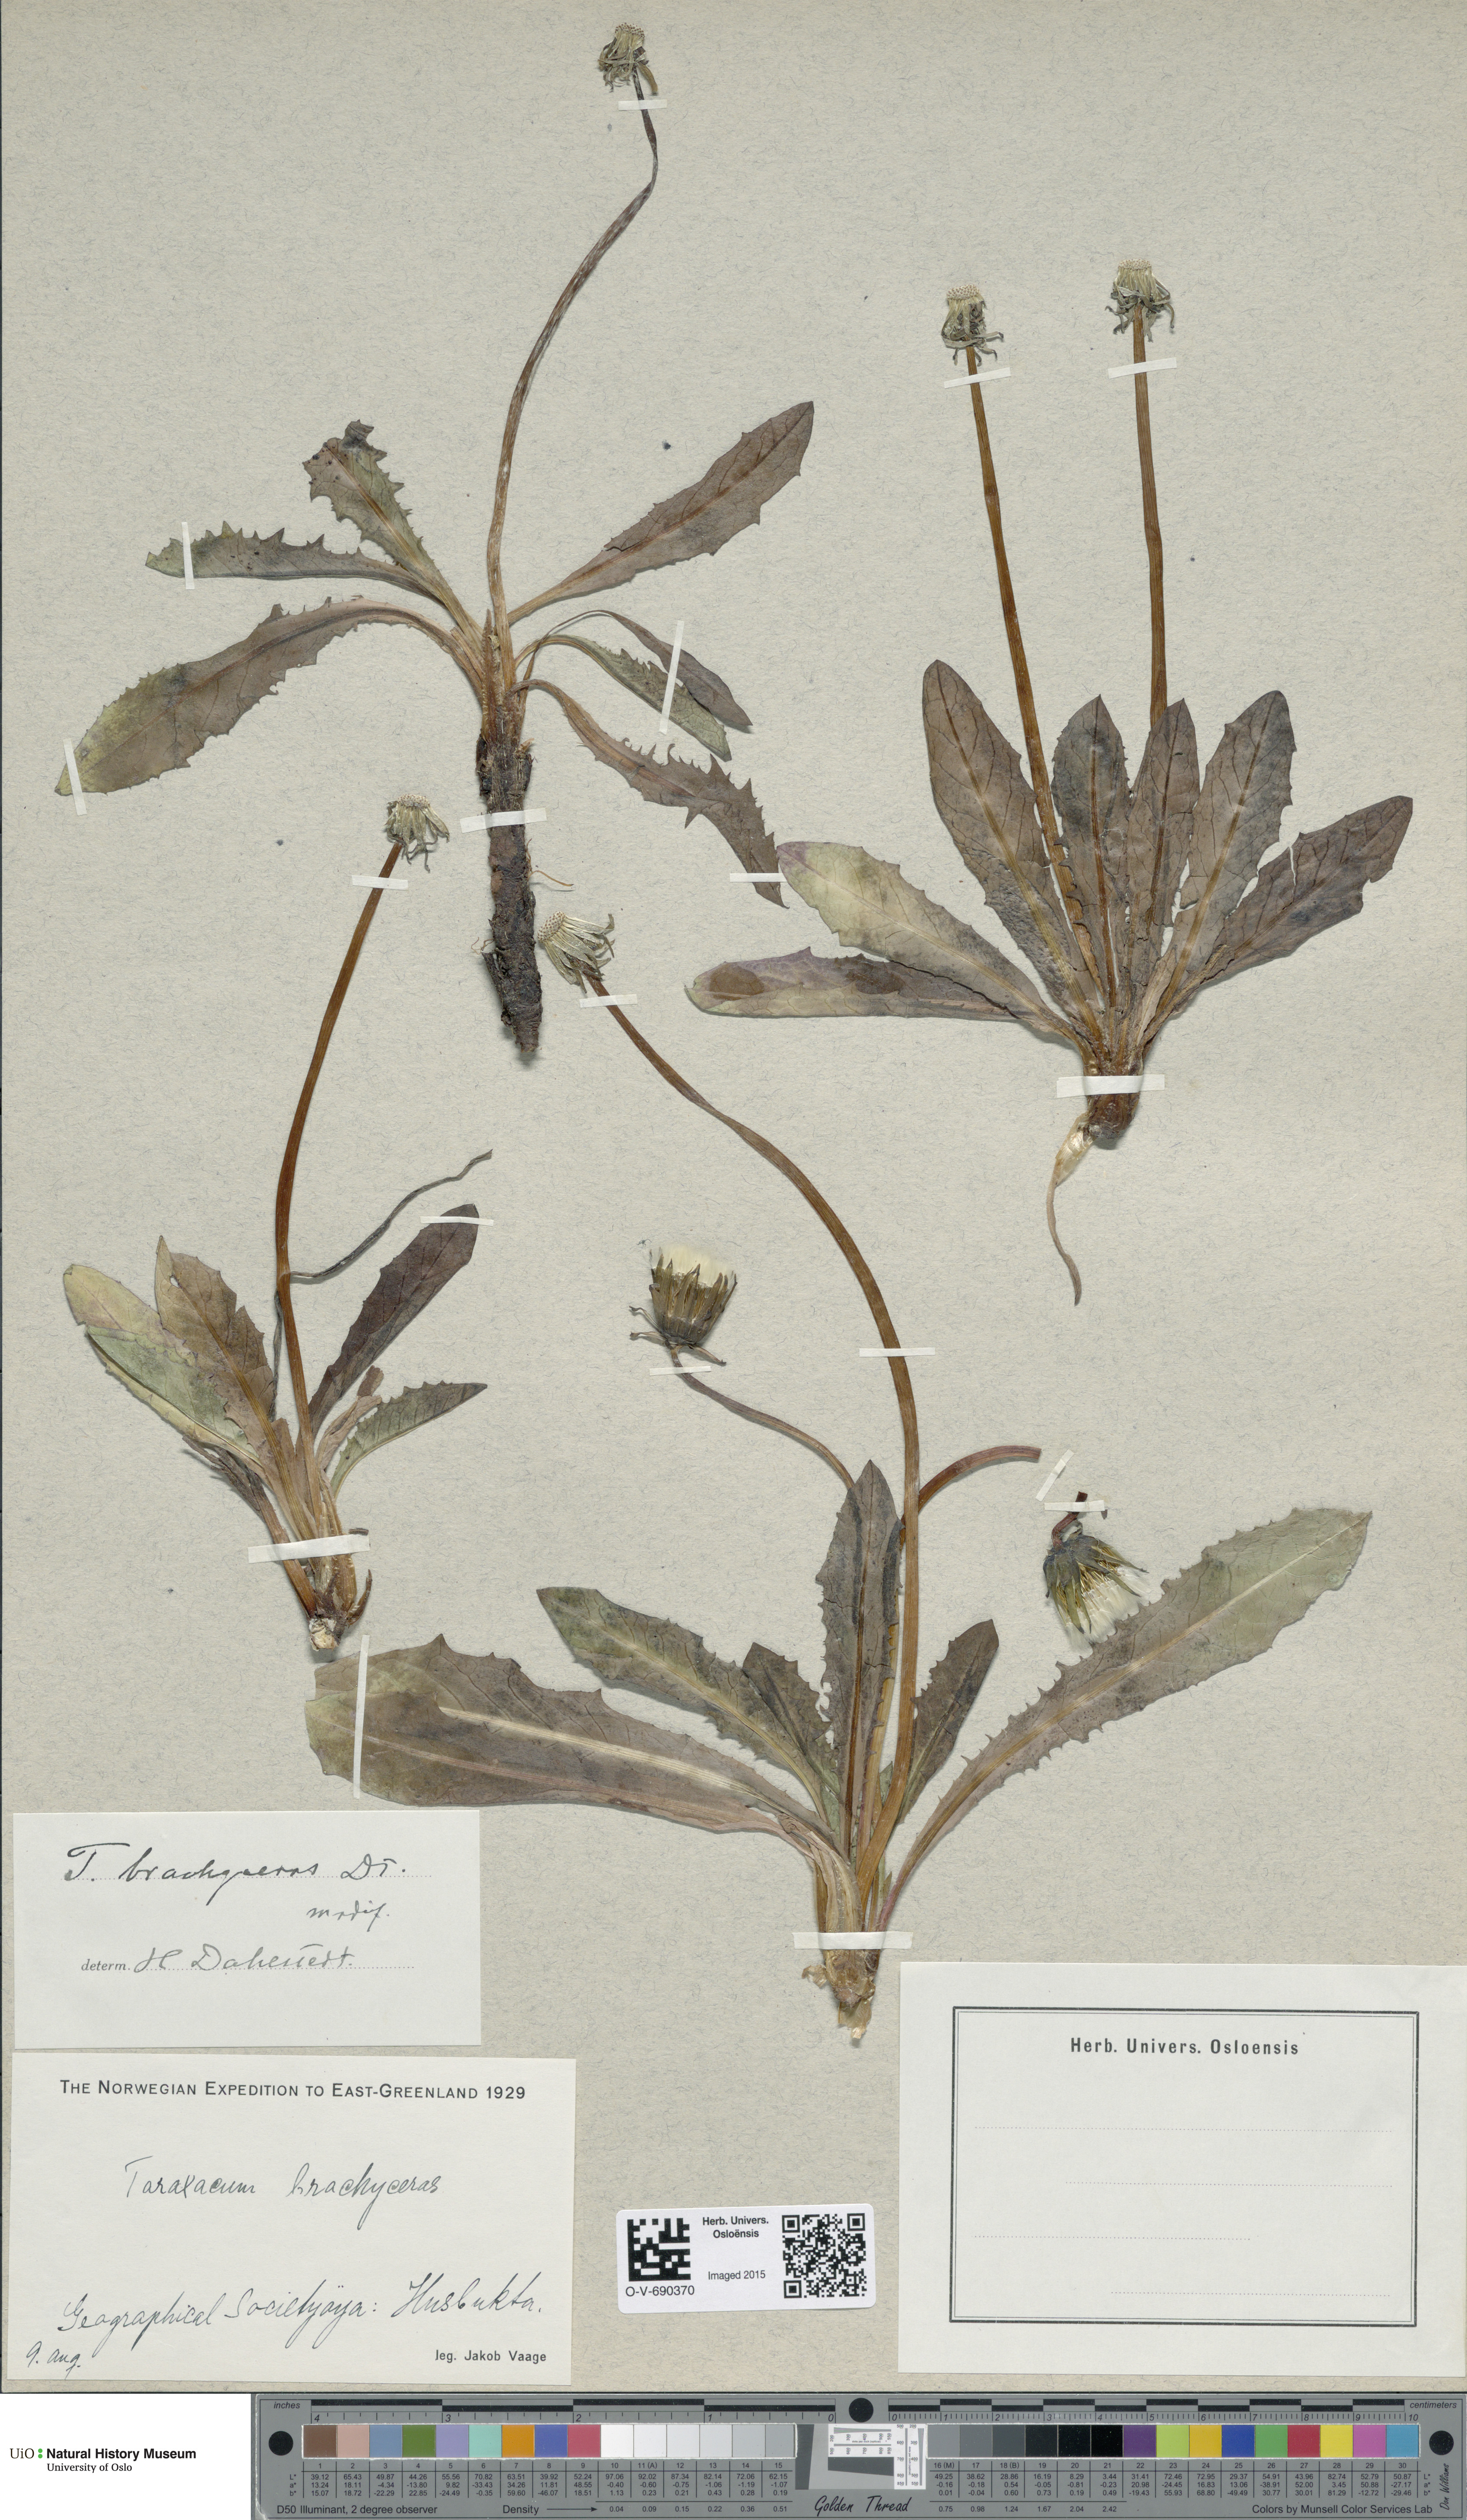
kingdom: Plantae
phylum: Tracheophyta
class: Magnoliopsida
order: Asterales
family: Asteraceae
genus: Taraxacum
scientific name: Taraxacum brachyceras
